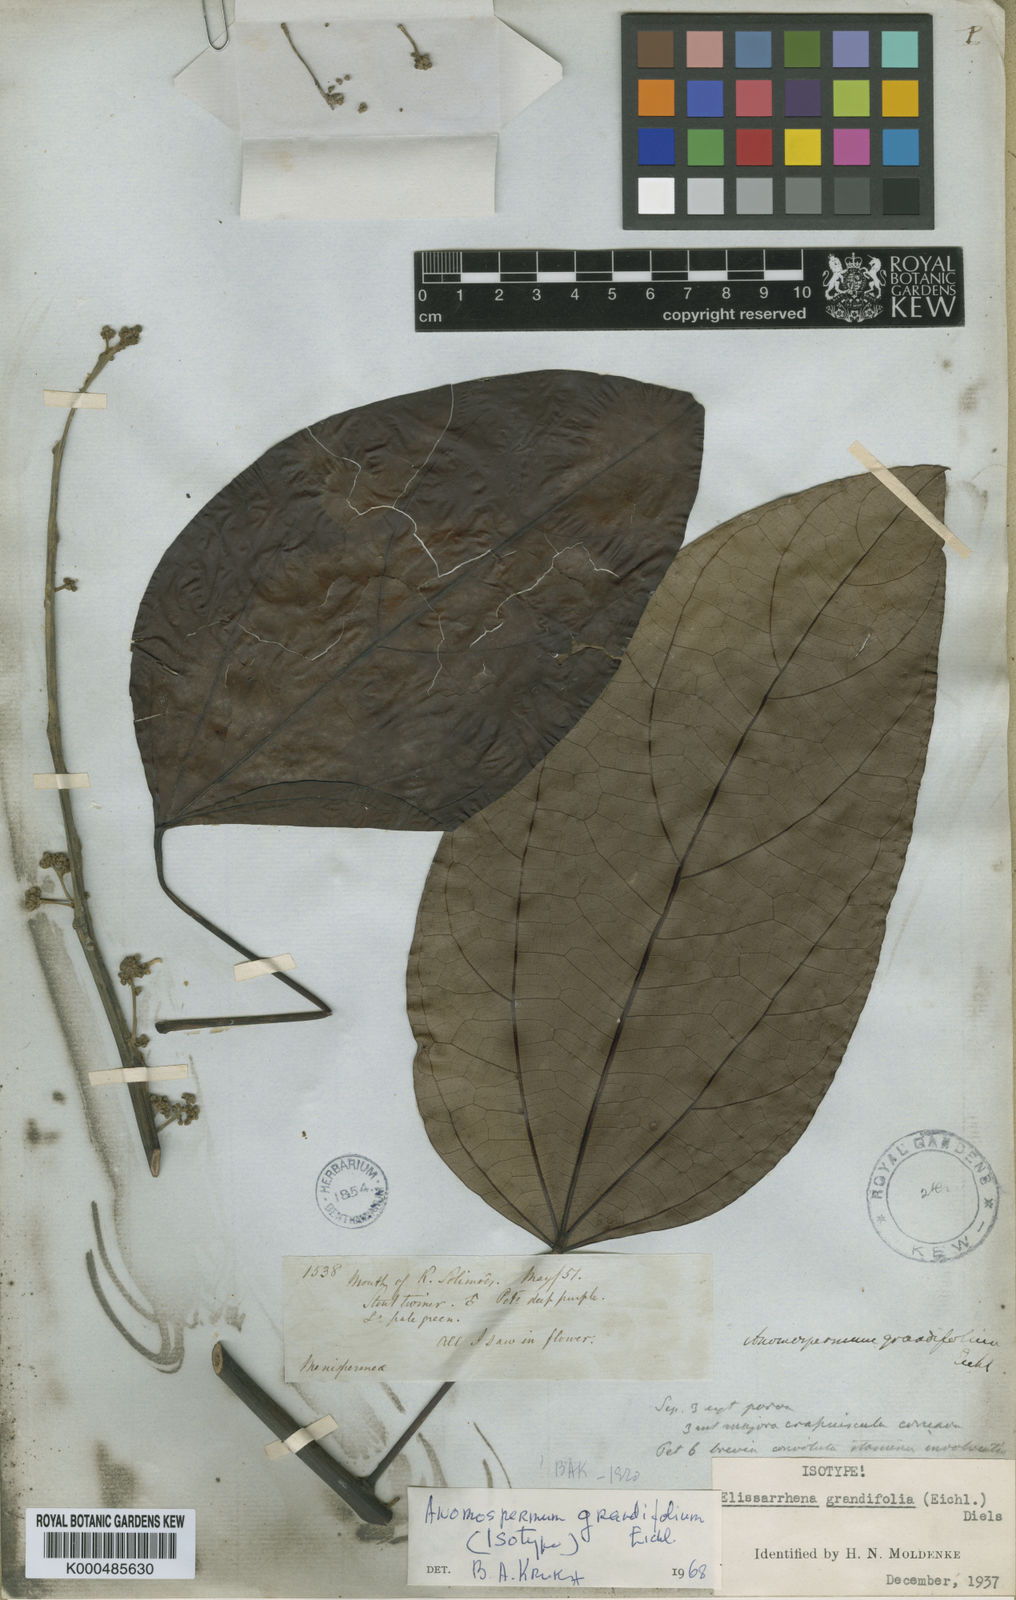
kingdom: Plantae
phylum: Tracheophyta
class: Magnoliopsida
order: Ranunculales
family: Menispermaceae
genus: Elissarrhena
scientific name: Elissarrhena longipes
